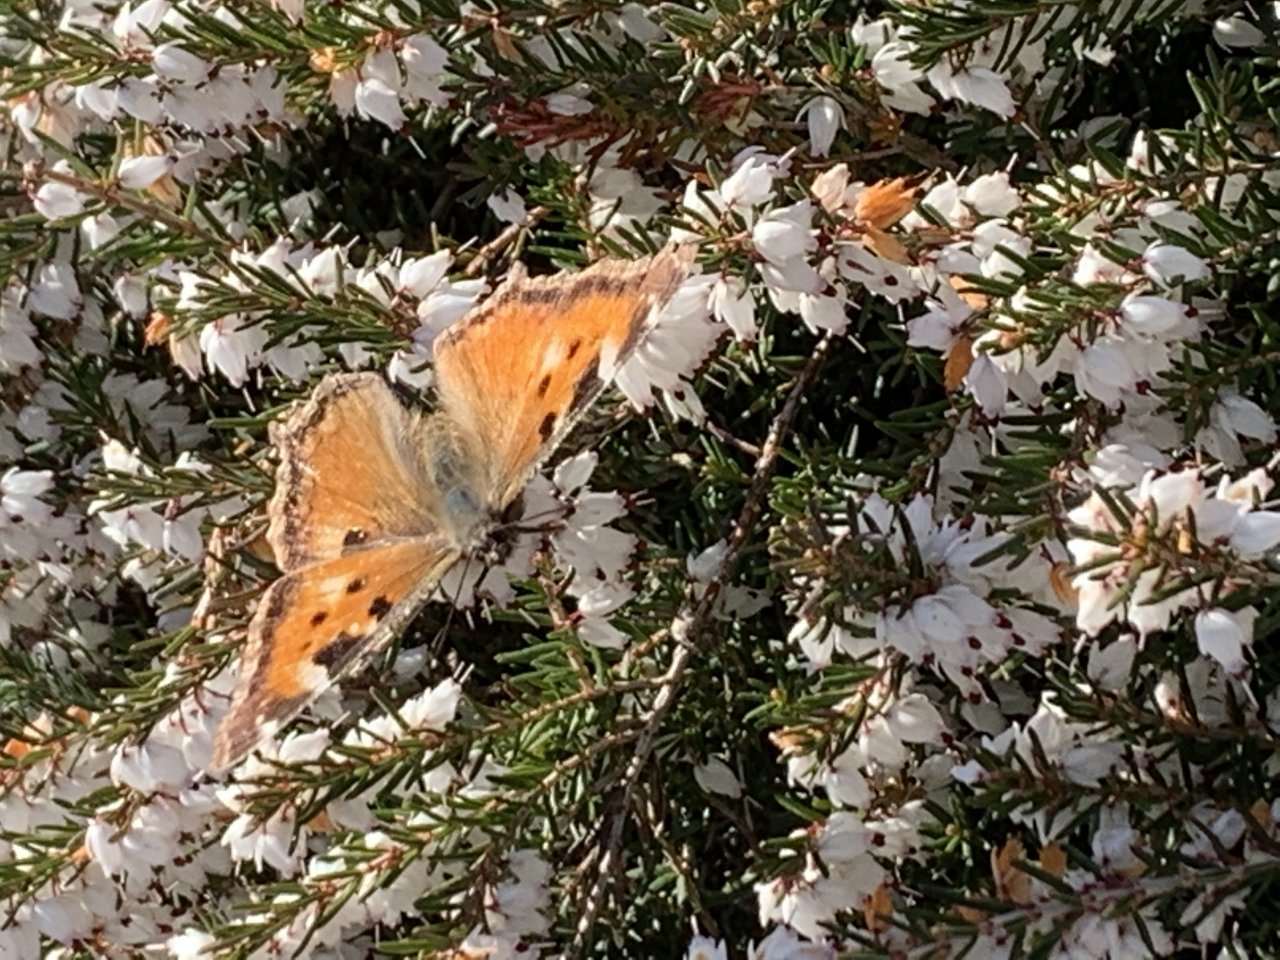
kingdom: Animalia
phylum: Arthropoda
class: Insecta
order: Lepidoptera
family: Nymphalidae
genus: Nymphalis
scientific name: Nymphalis californica
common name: California Tortoiseshell
